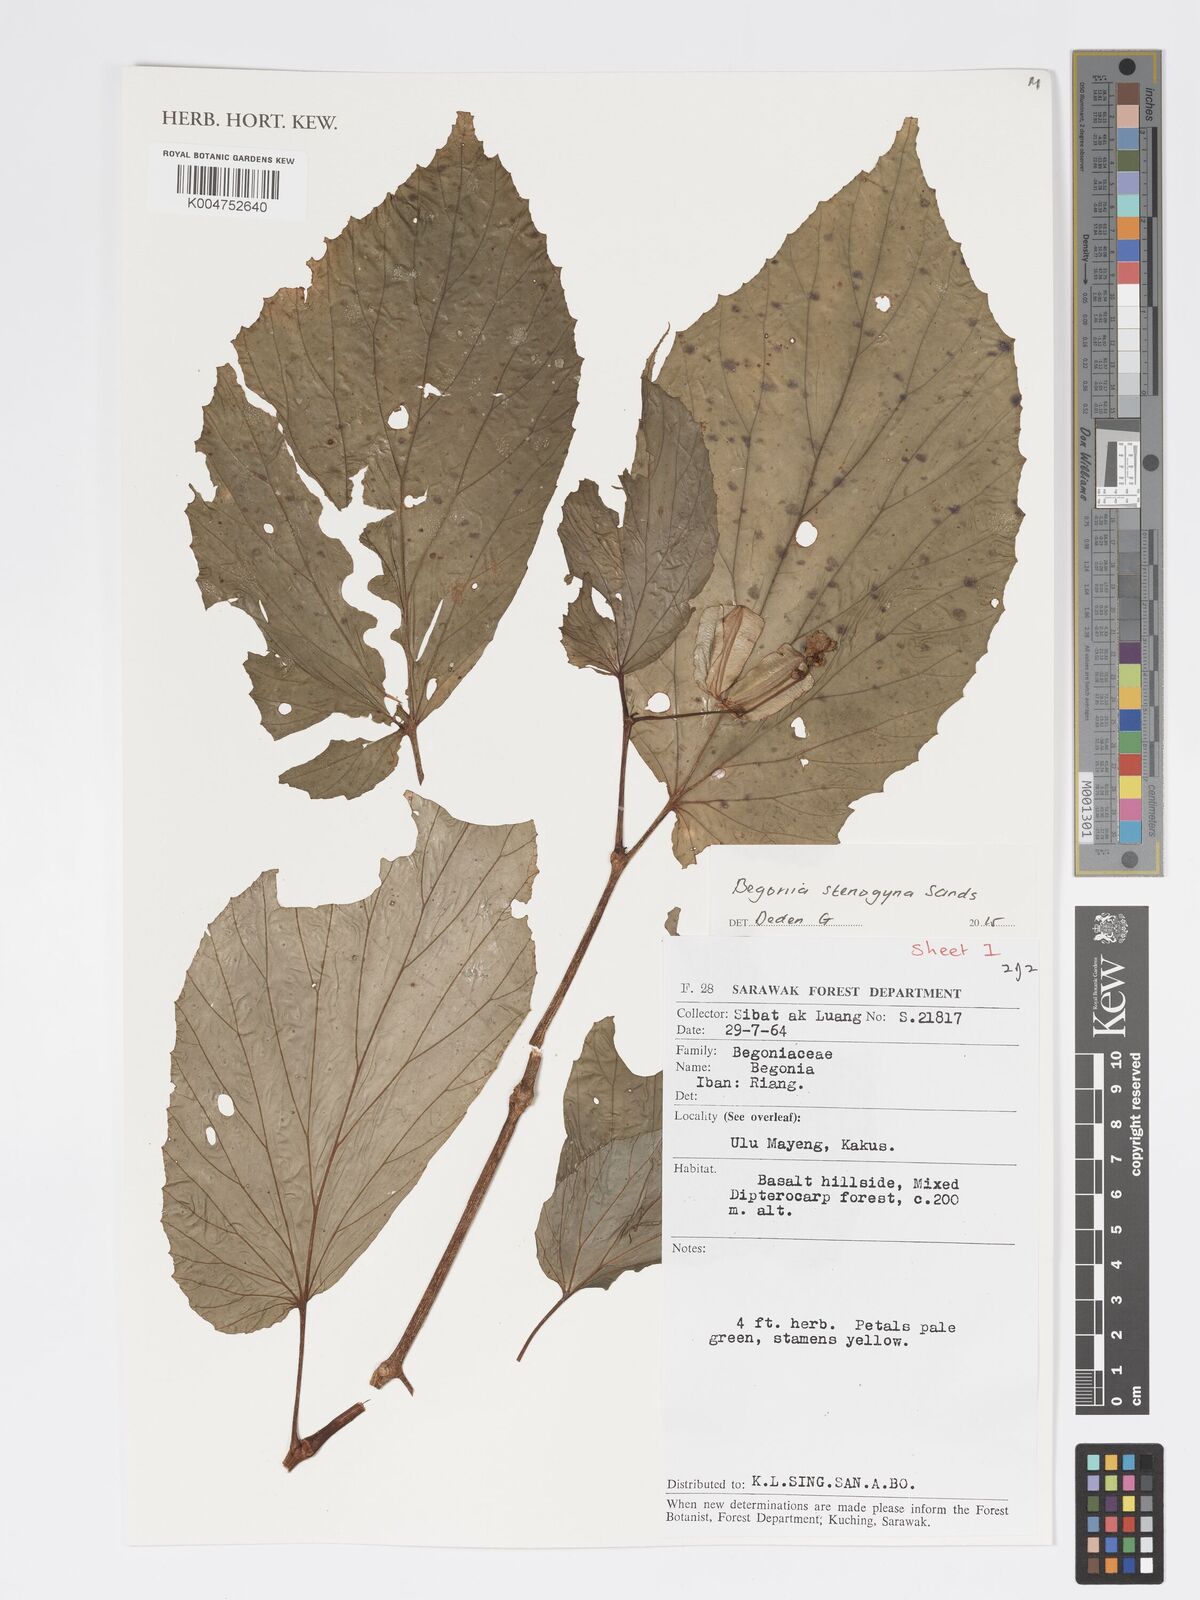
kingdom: Plantae
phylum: Tracheophyta
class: Magnoliopsida
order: Cucurbitales
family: Begoniaceae
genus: Begonia
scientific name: Begonia stenogyna
